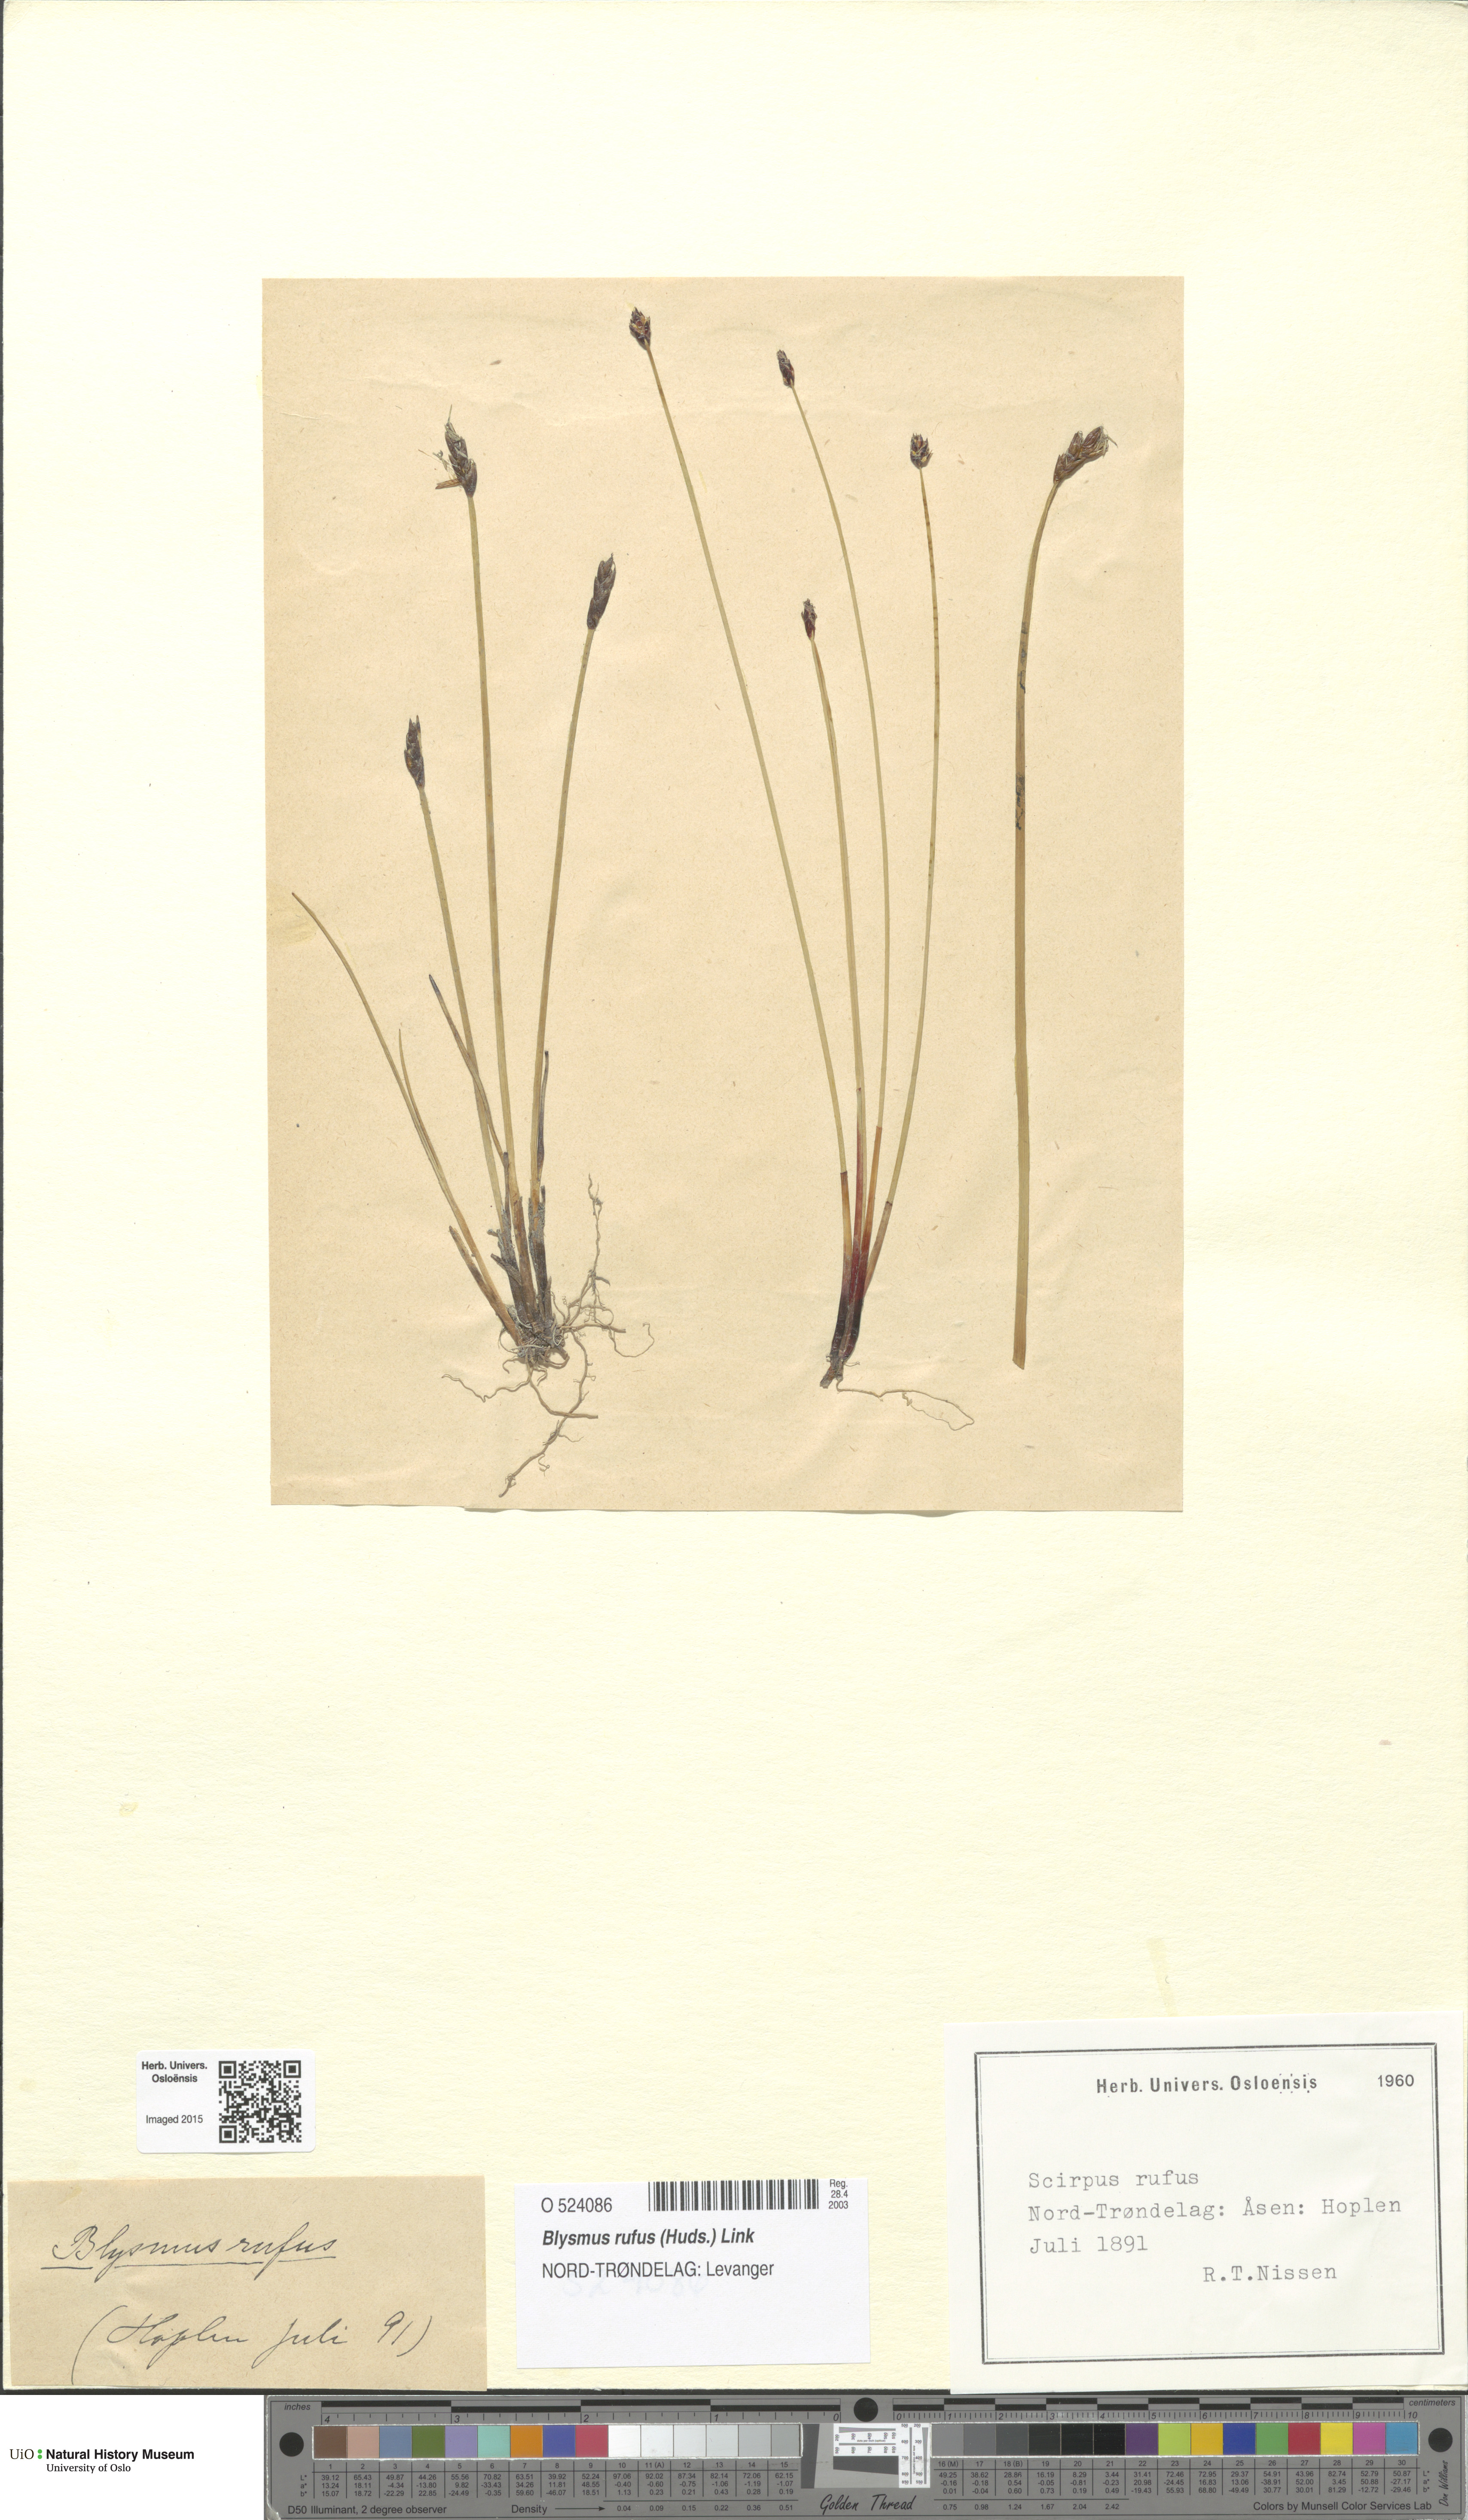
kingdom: Plantae
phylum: Tracheophyta
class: Liliopsida
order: Poales
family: Cyperaceae
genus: Blysmus
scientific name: Blysmus rufus
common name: Saltmarsh flat-sedge
